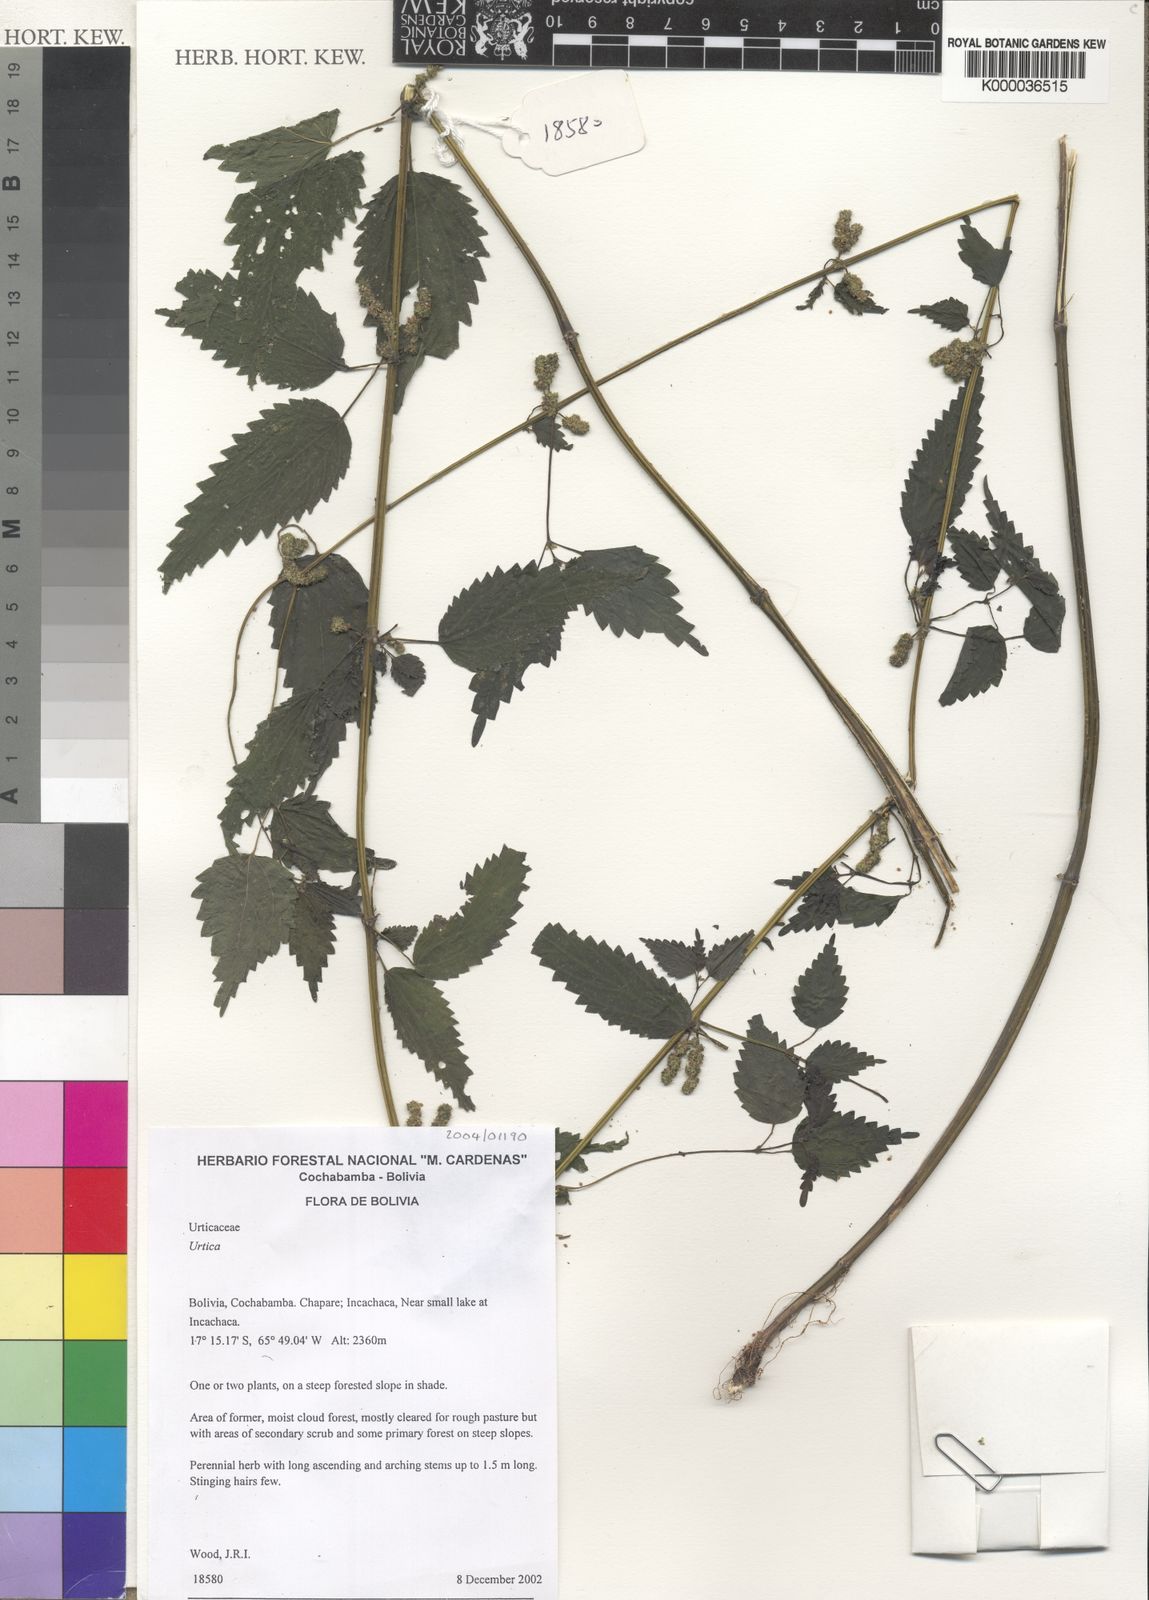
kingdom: Plantae
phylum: Tracheophyta
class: Magnoliopsida
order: Rosales
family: Urticaceae
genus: Urtica
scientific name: Urtica
